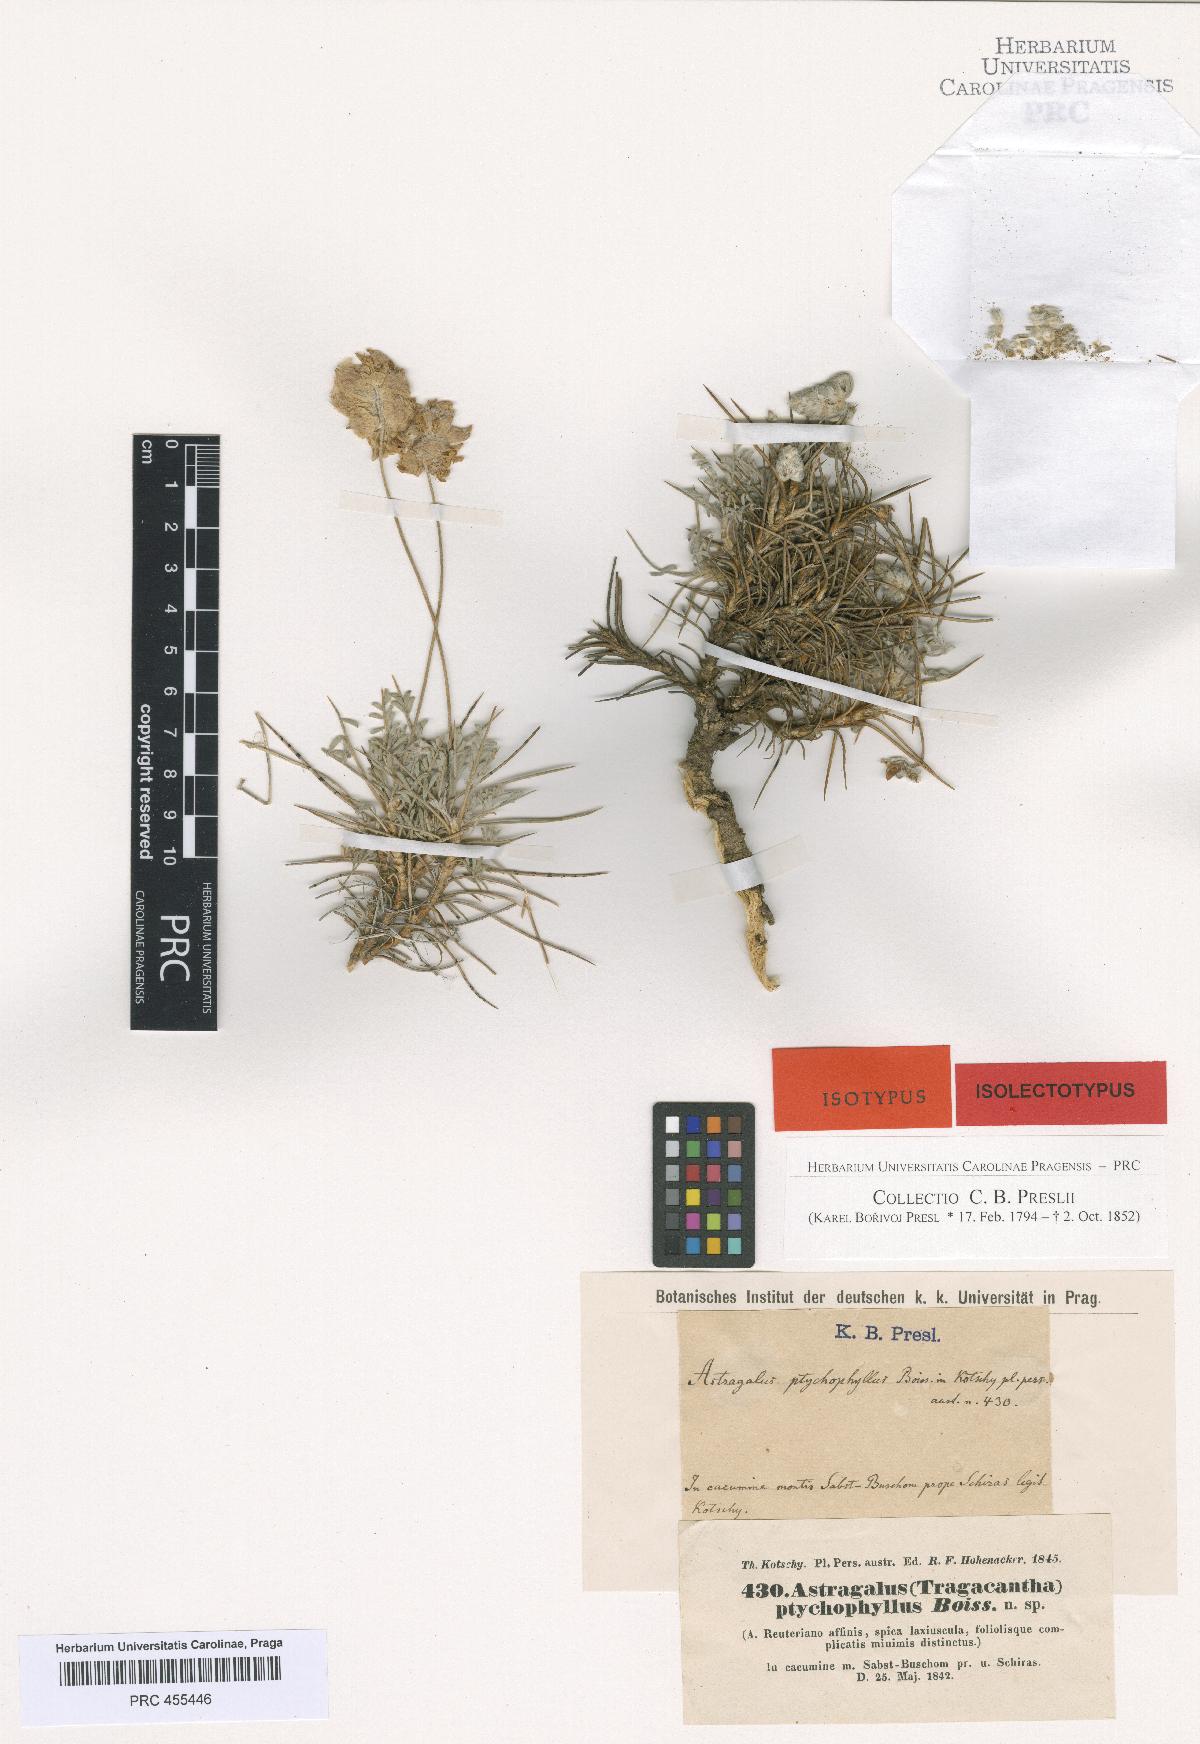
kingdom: Plantae
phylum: Tracheophyta
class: Magnoliopsida
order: Fabales
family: Fabaceae
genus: Astragalus
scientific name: Astragalus ptychophyllus
